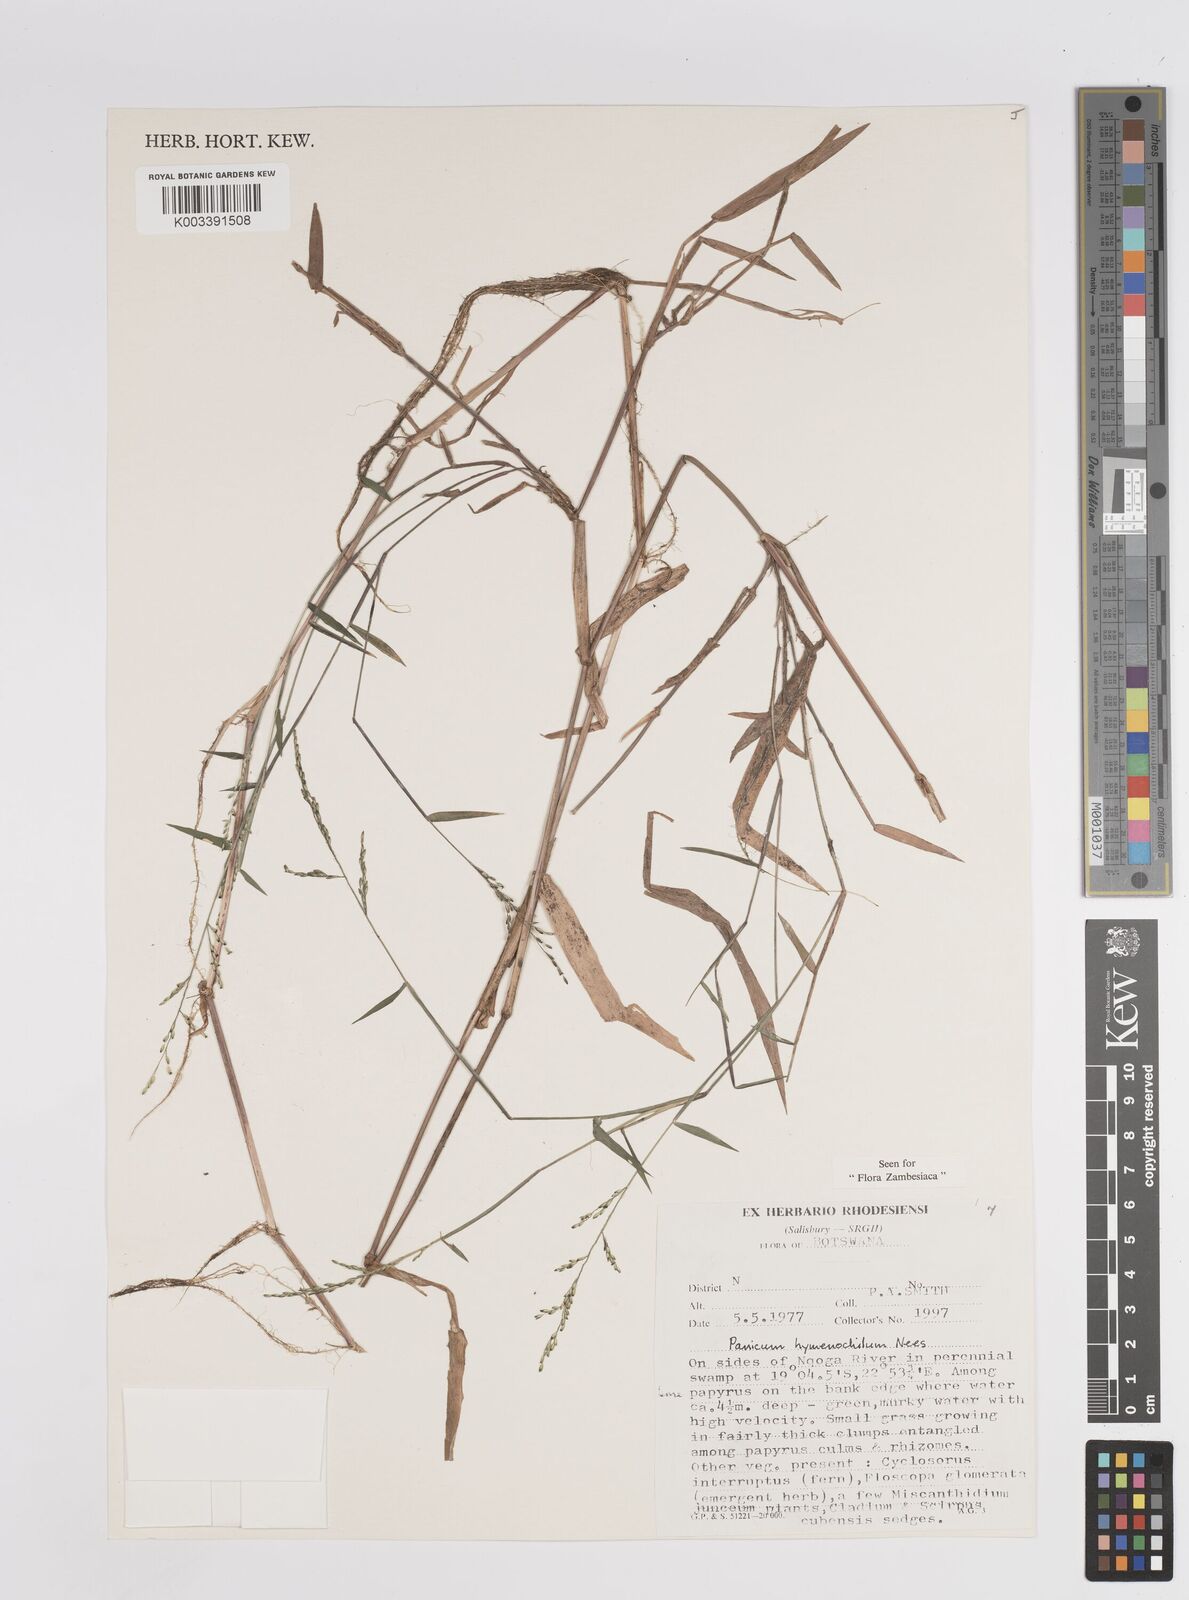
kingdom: Plantae
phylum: Tracheophyta
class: Liliopsida
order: Poales
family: Poaceae
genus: Adenochloa
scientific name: Adenochloa hymeniochila
